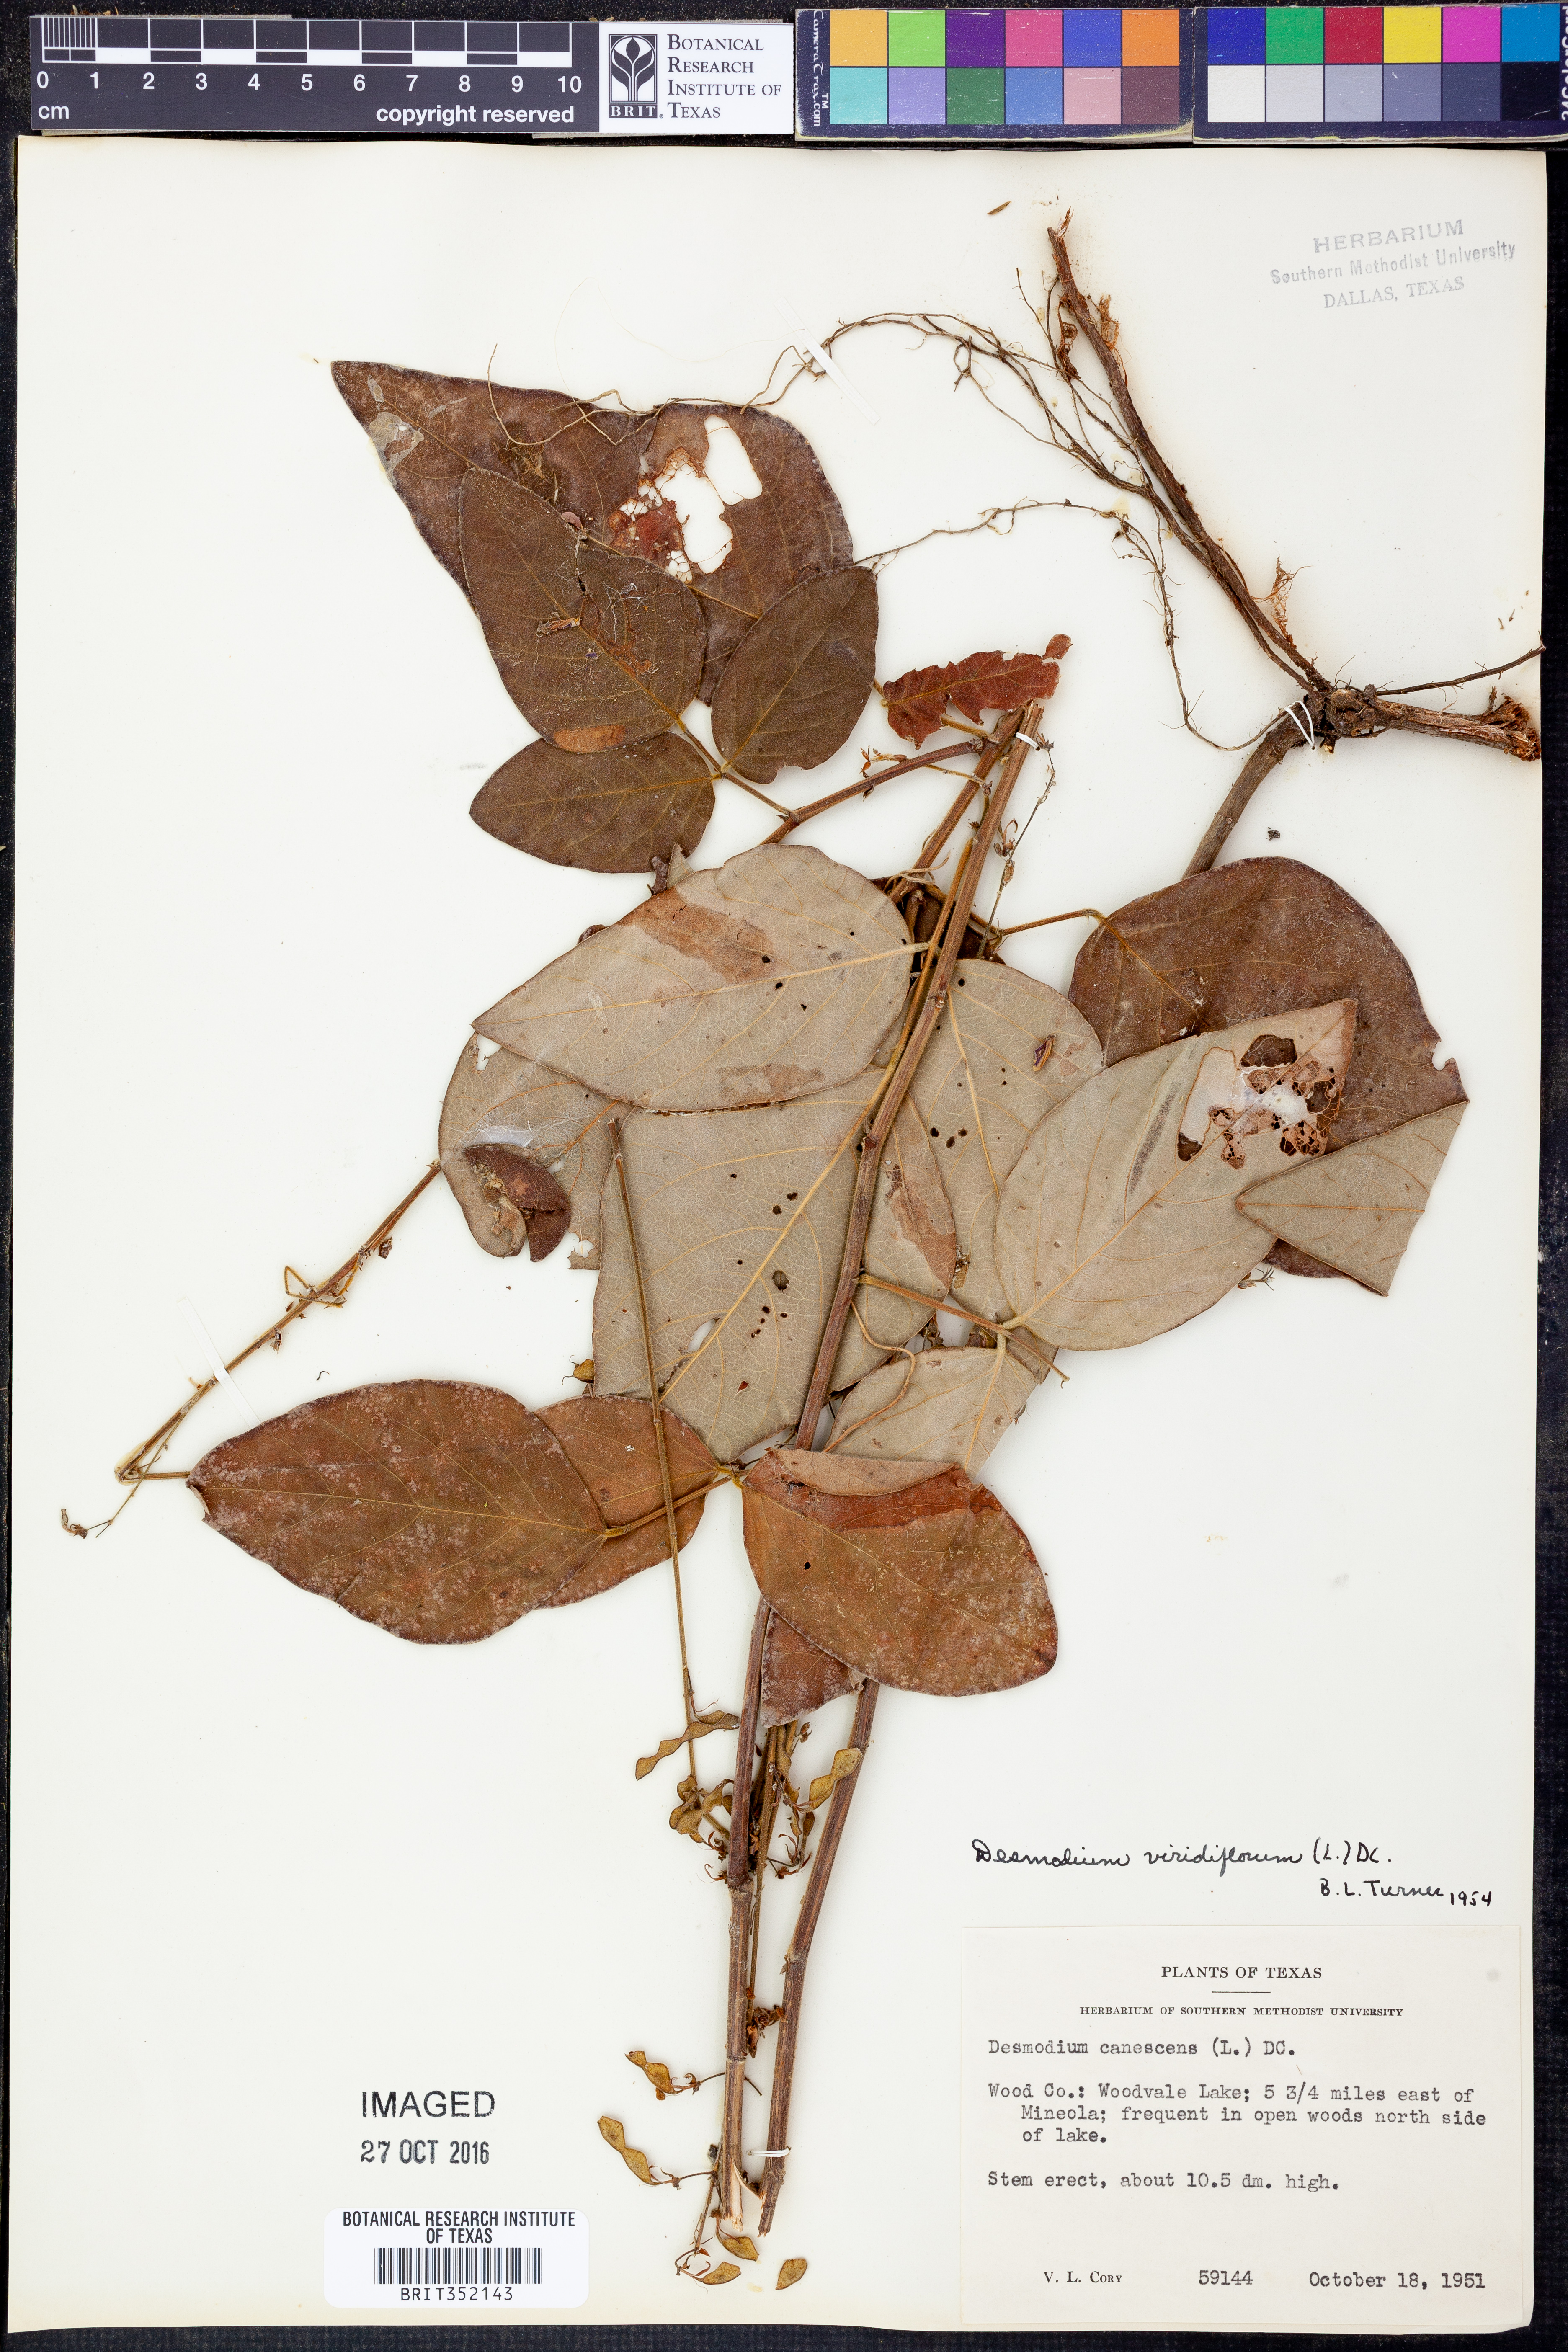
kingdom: Plantae
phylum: Tracheophyta
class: Magnoliopsida
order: Fabales
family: Fabaceae
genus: Desmodium
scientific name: Desmodium viridiflorum
